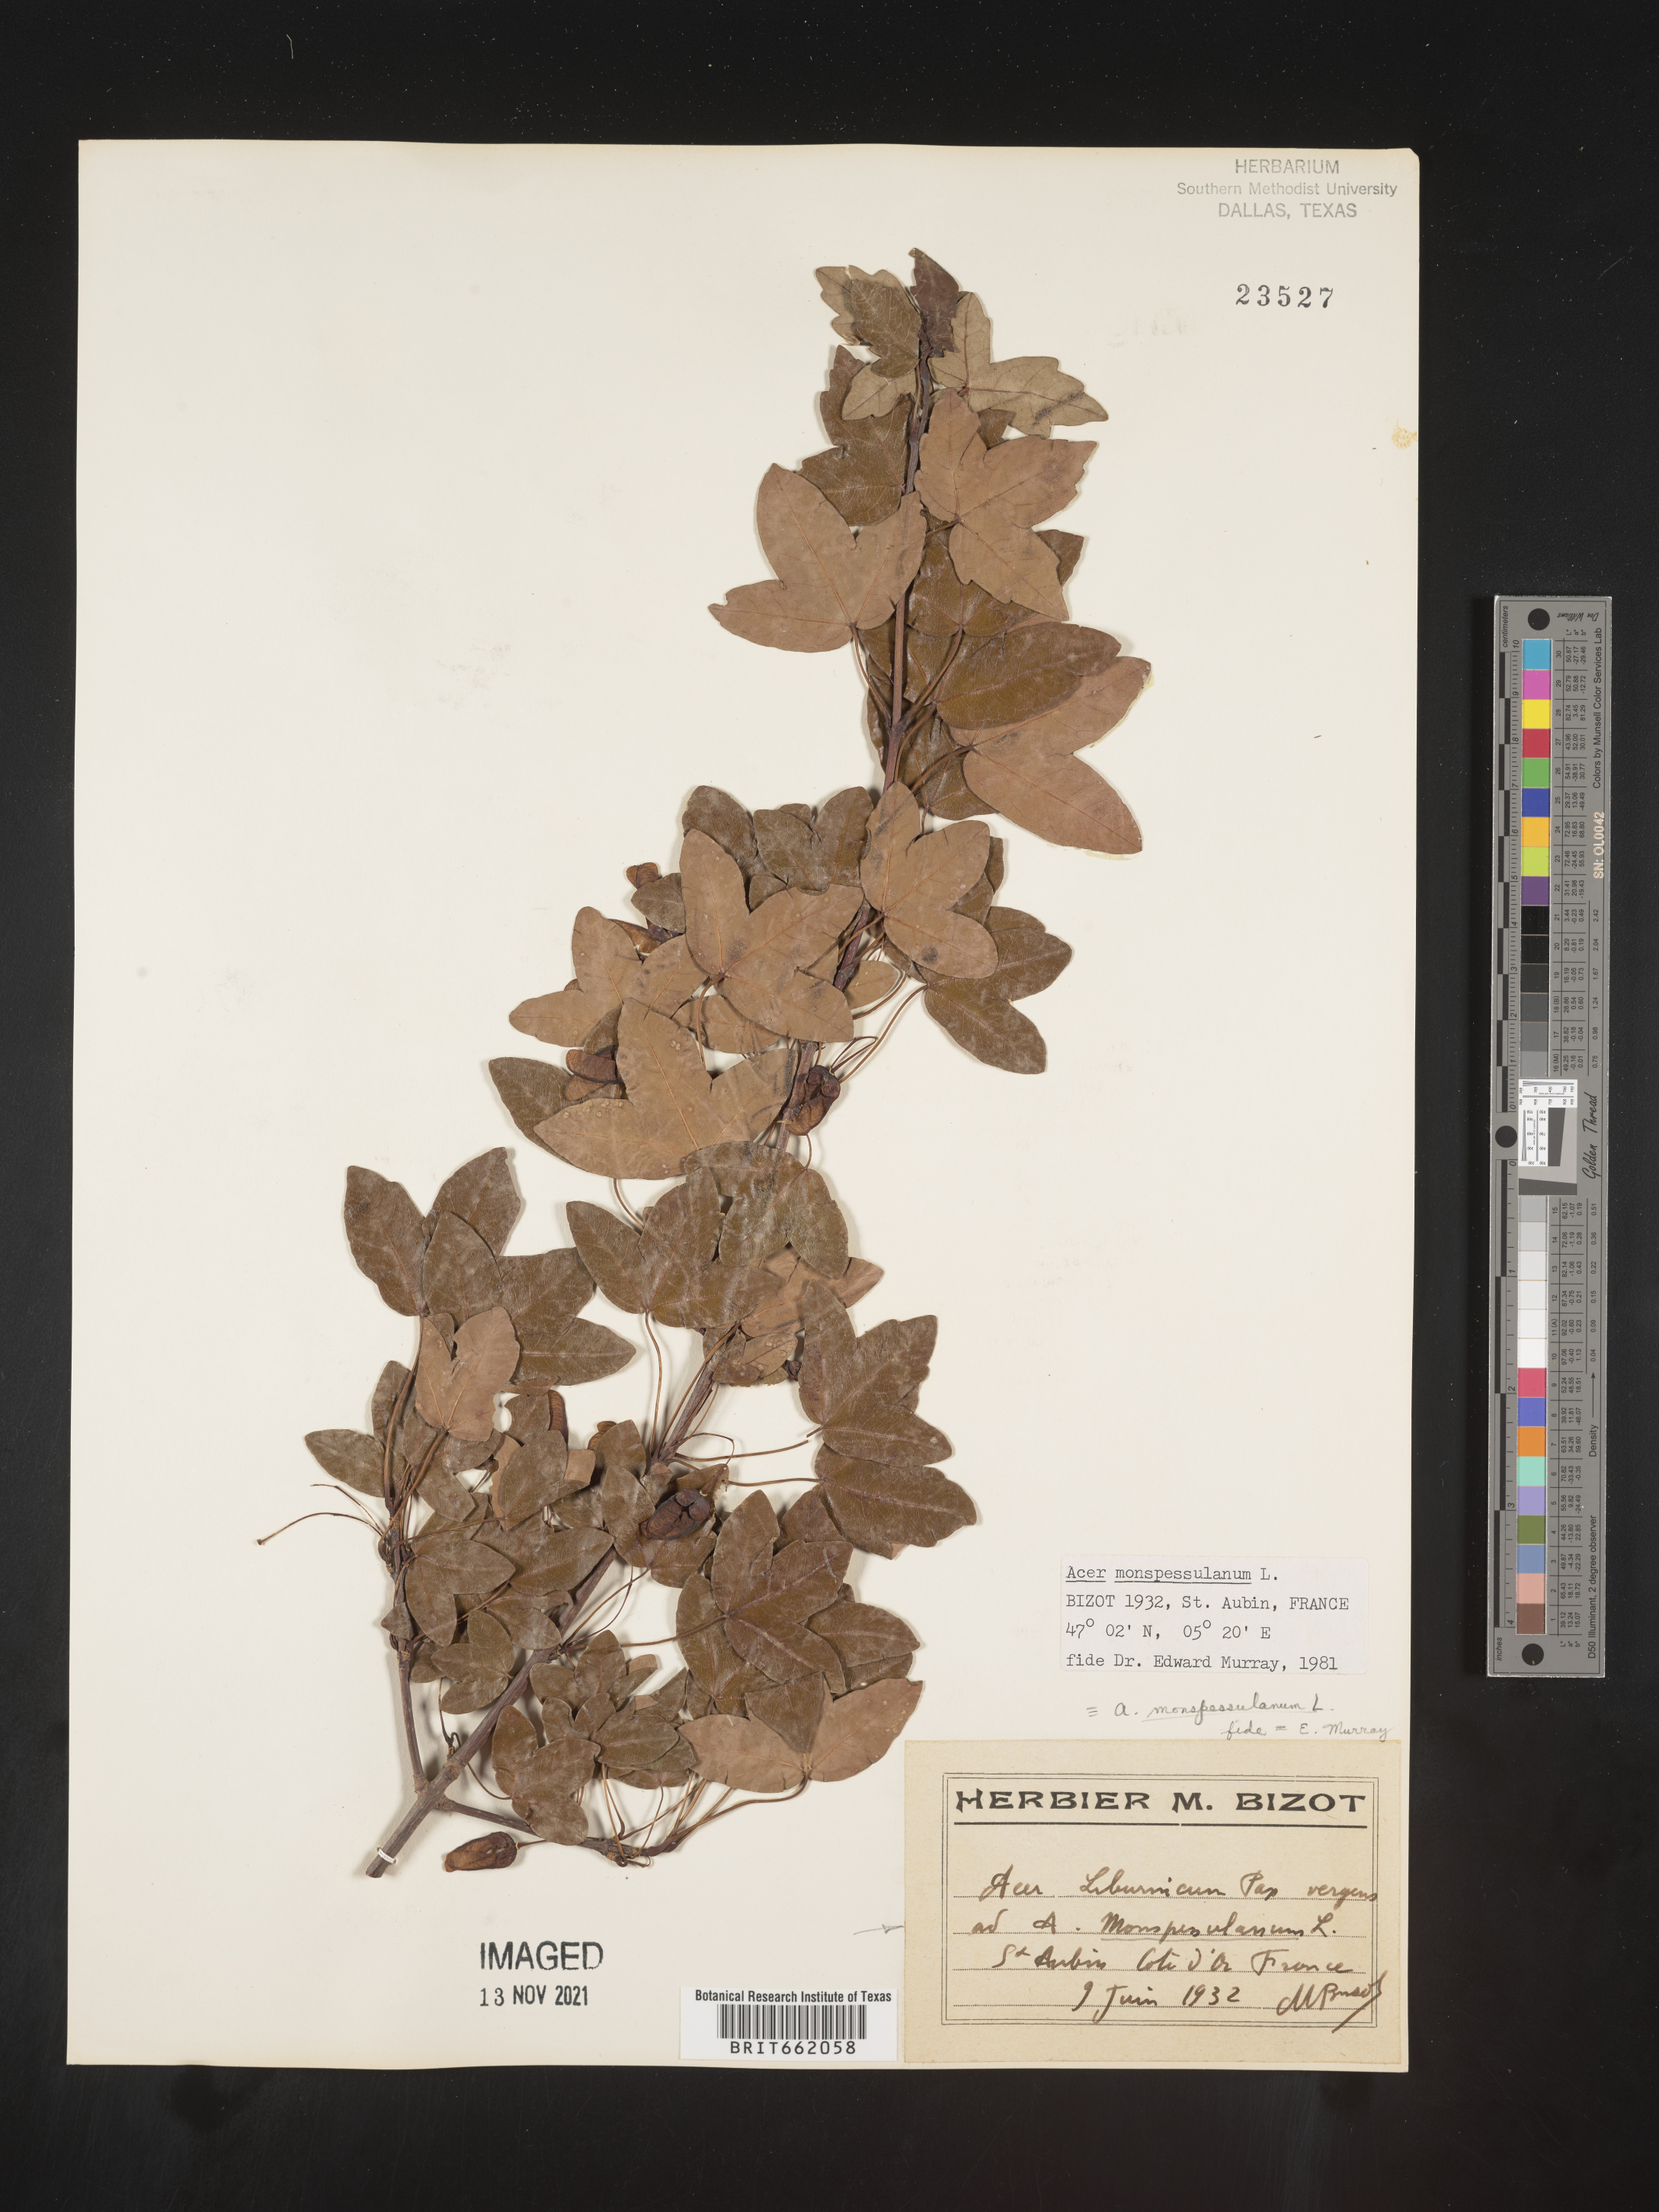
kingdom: Plantae
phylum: Tracheophyta
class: Magnoliopsida
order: Sapindales
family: Sapindaceae
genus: Acer
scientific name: Acer
